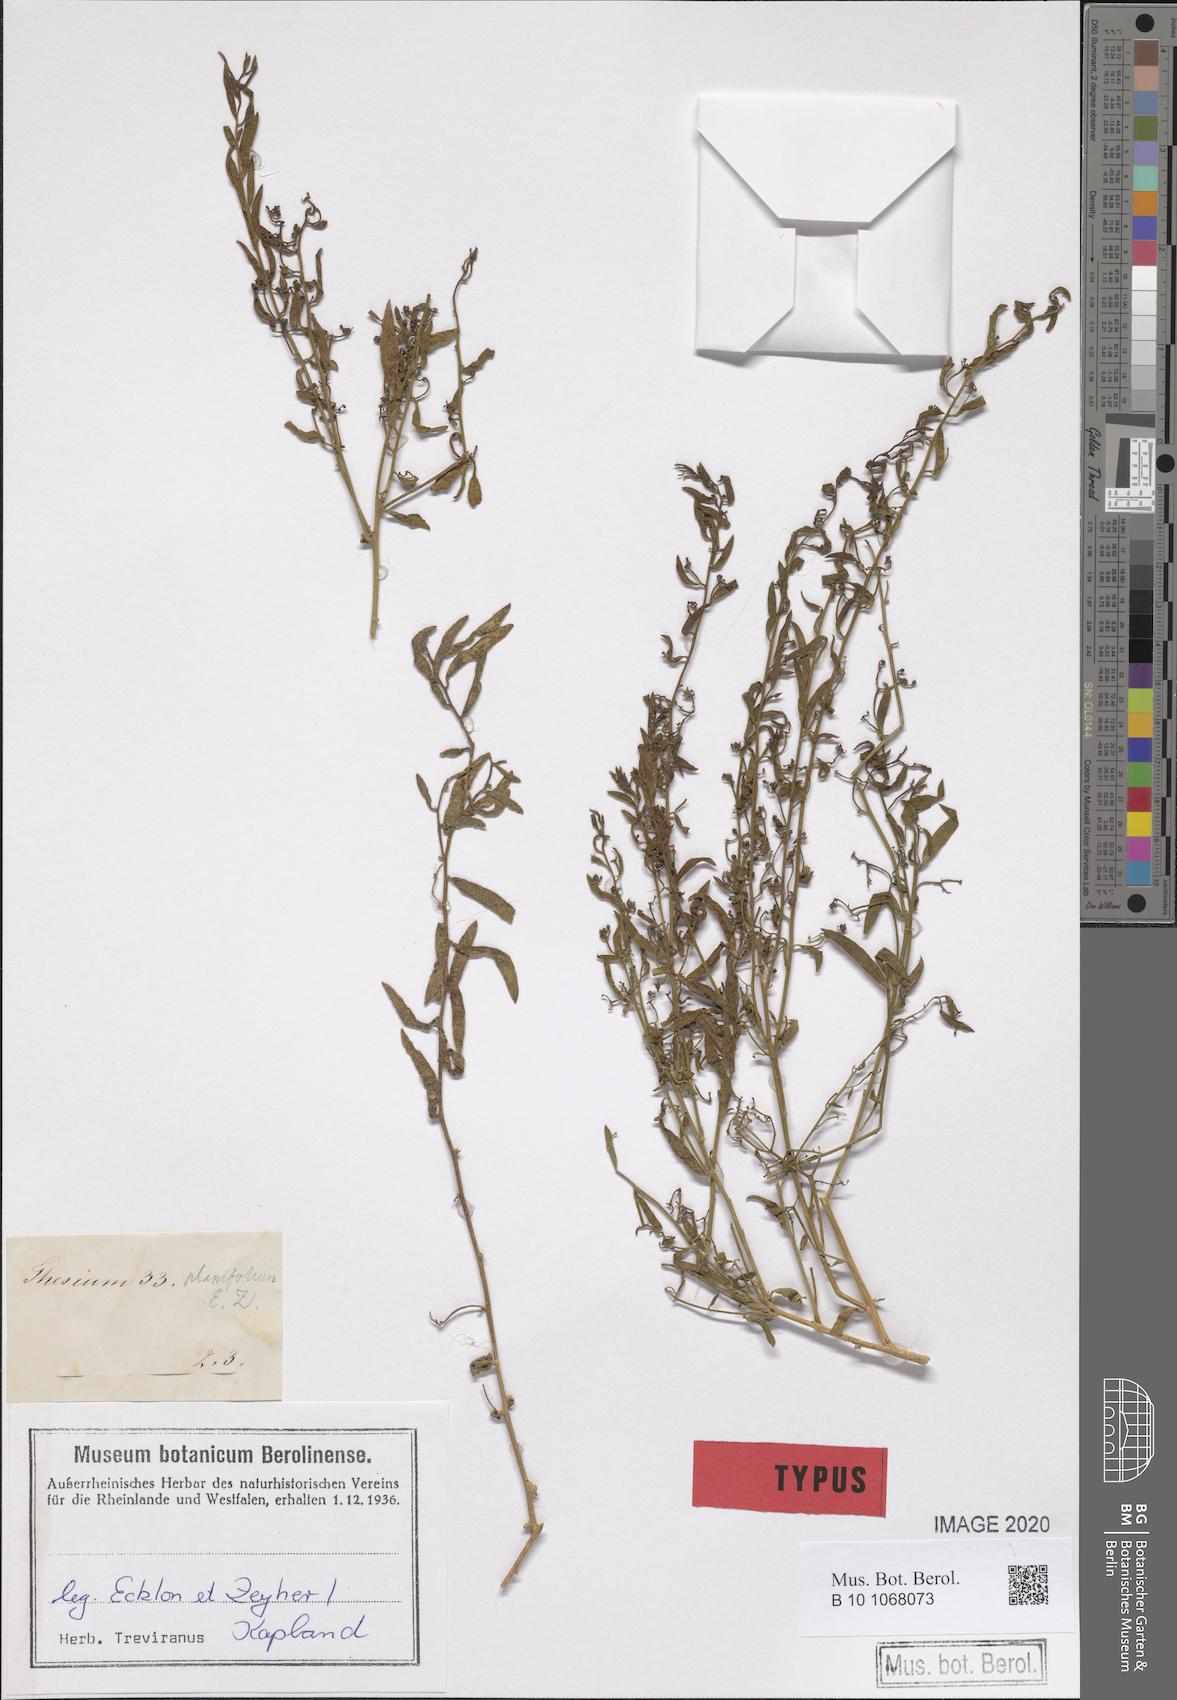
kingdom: Plantae
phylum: Tracheophyta
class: Magnoliopsida
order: Santalales
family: Thesiaceae
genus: Thesium
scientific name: Thesium triflorum
